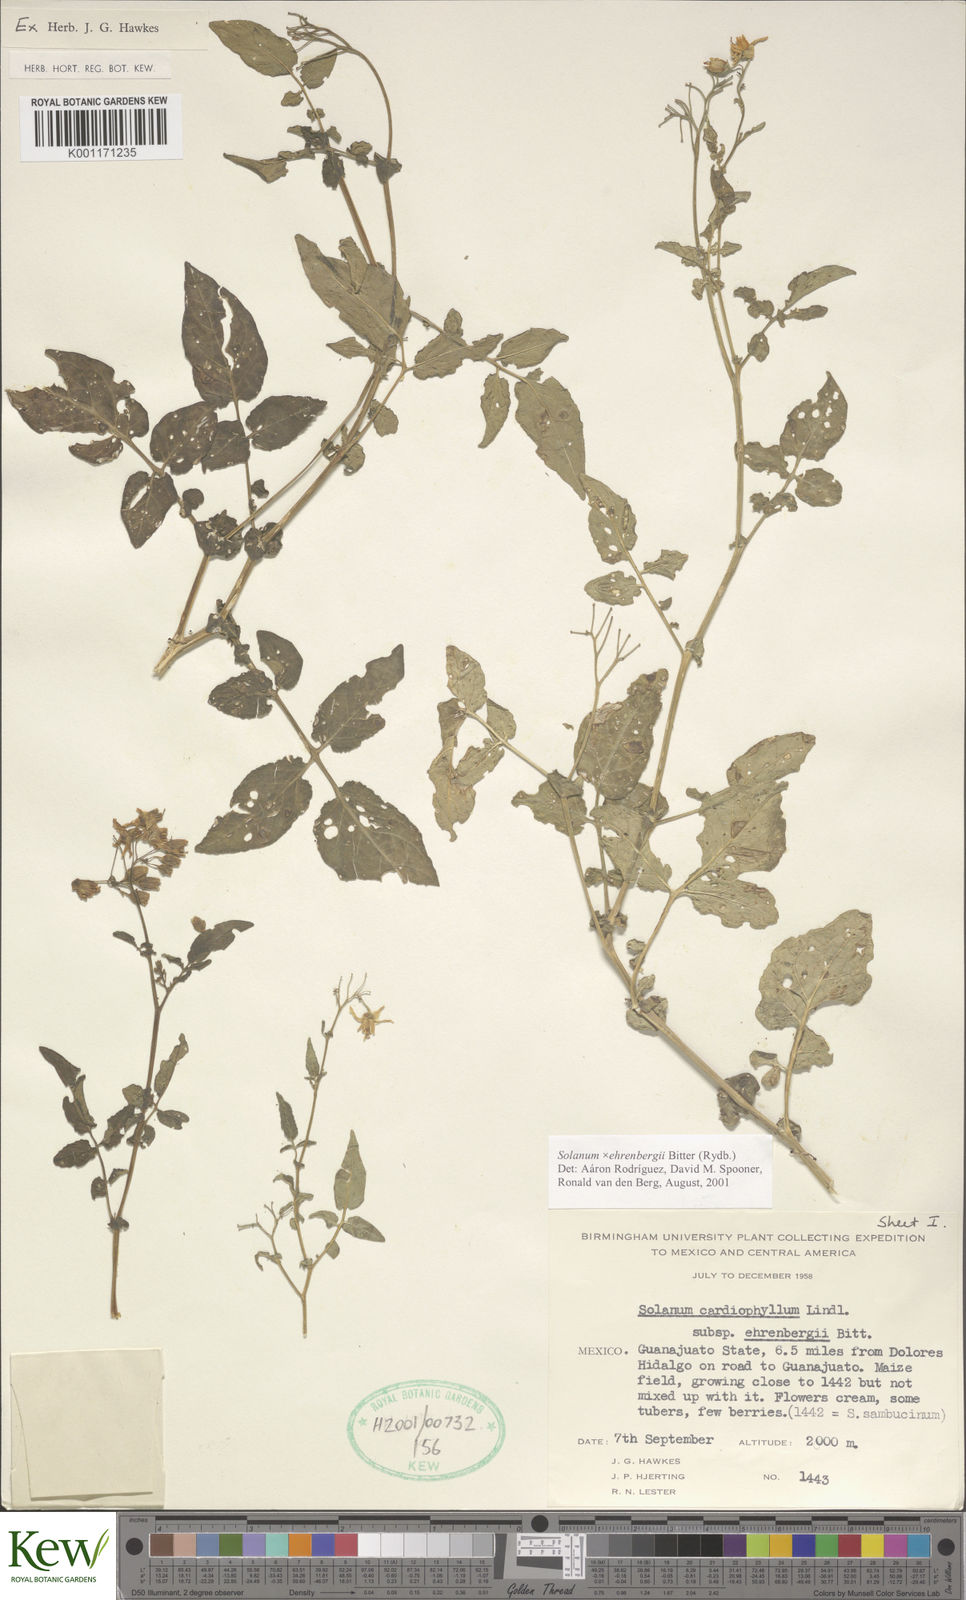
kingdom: Plantae
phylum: Tracheophyta
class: Magnoliopsida
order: Solanales
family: Solanaceae
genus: Solanum
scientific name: Solanum edinense
